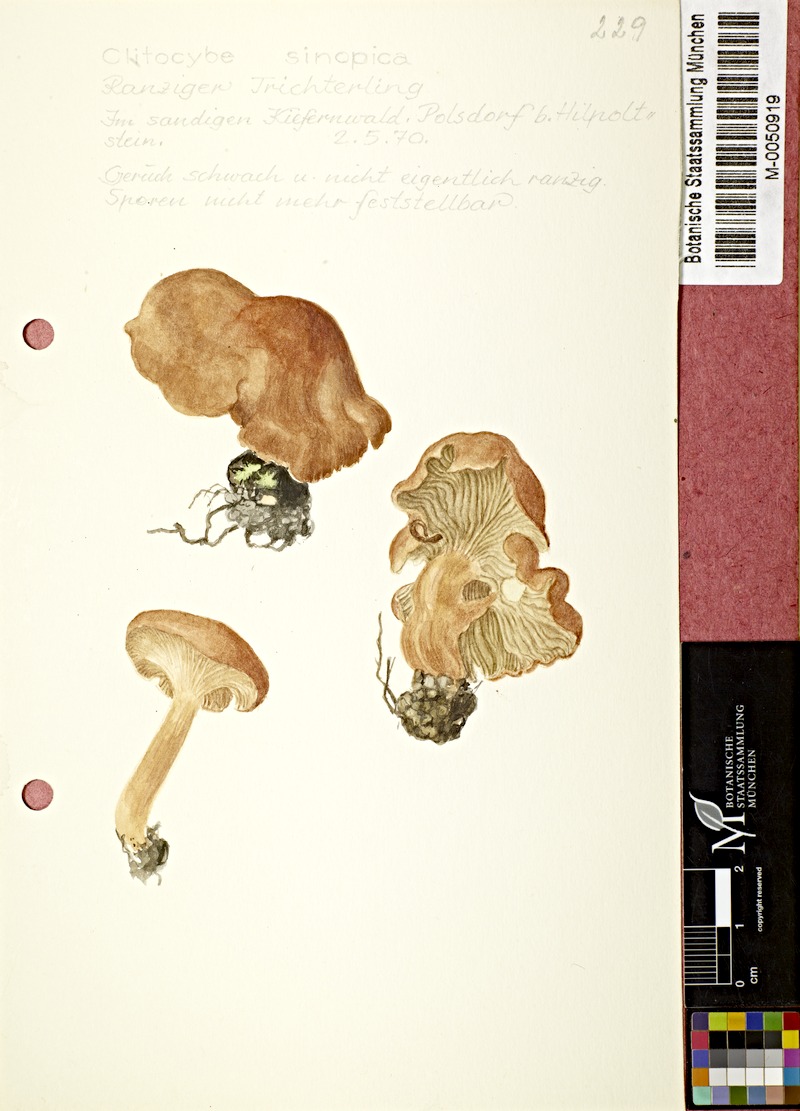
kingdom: Fungi
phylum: Basidiomycota
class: Agaricomycetes
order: Agaricales
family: Pseudoclitocybaceae
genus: Bonomyces
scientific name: Bonomyces sinopicus
